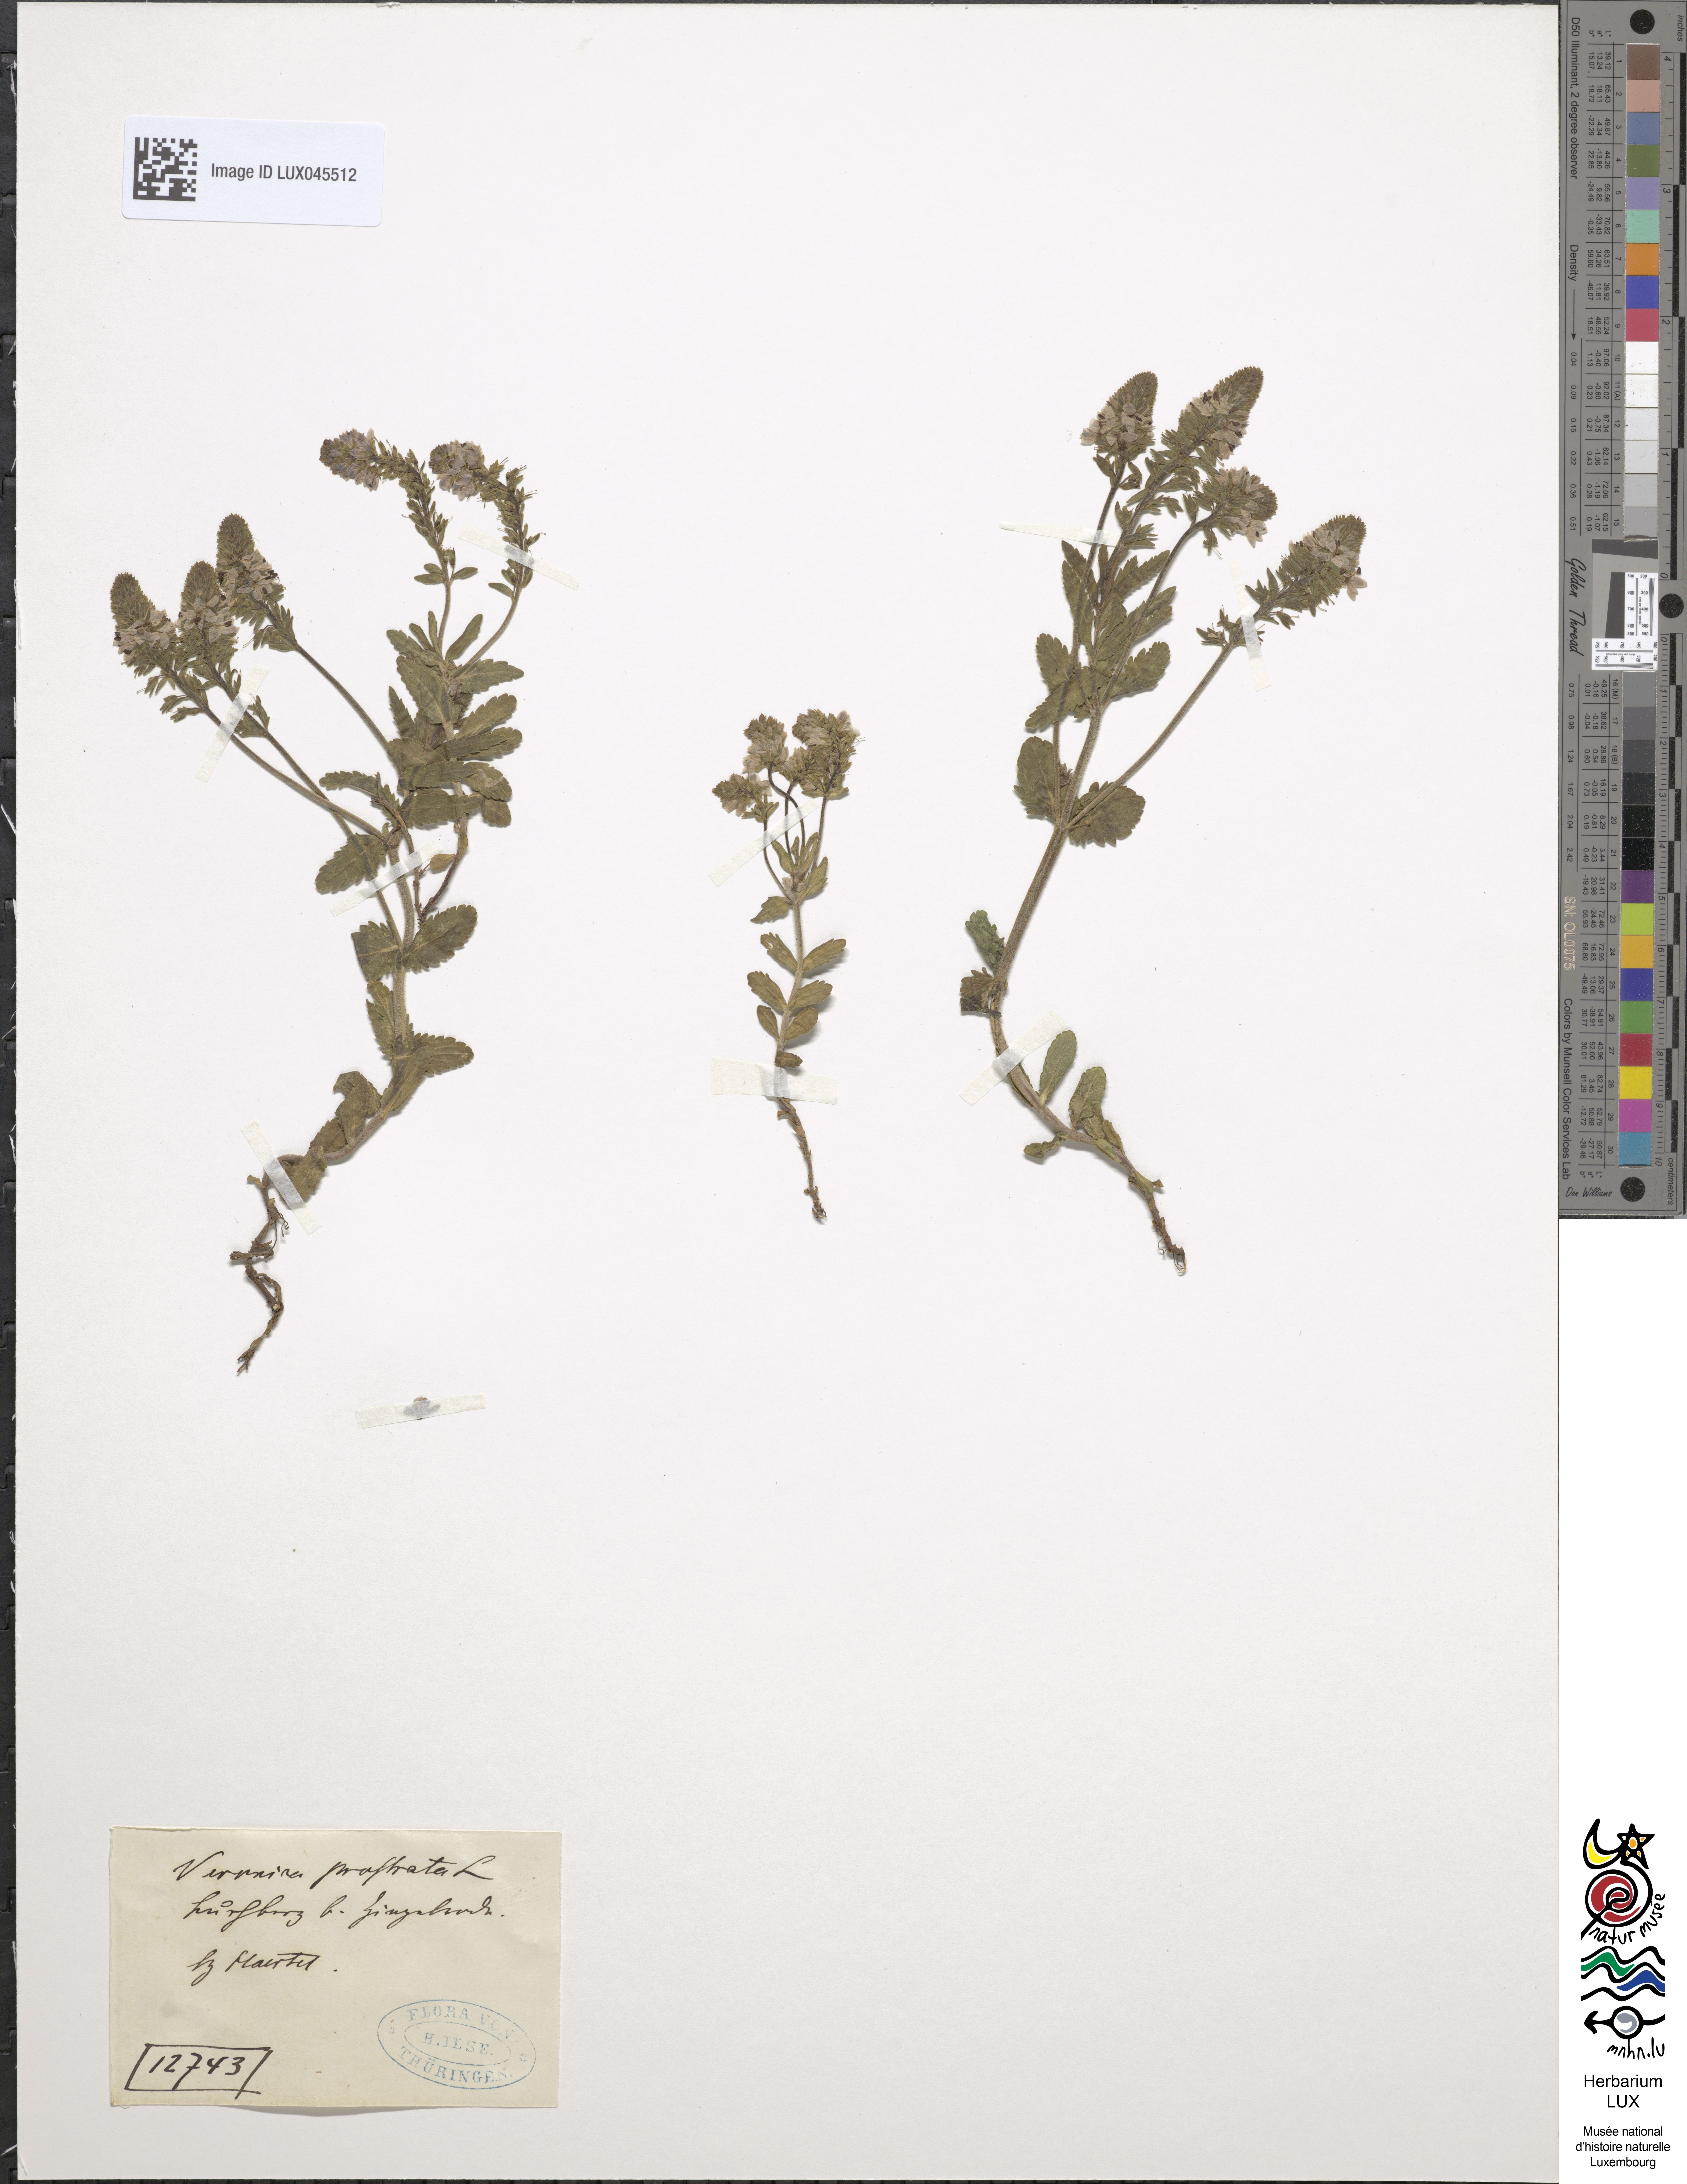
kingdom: Plantae
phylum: Tracheophyta
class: Magnoliopsida
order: Lamiales
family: Plantaginaceae
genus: Veronica
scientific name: Veronica prostrata
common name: Prostrate speedwell
